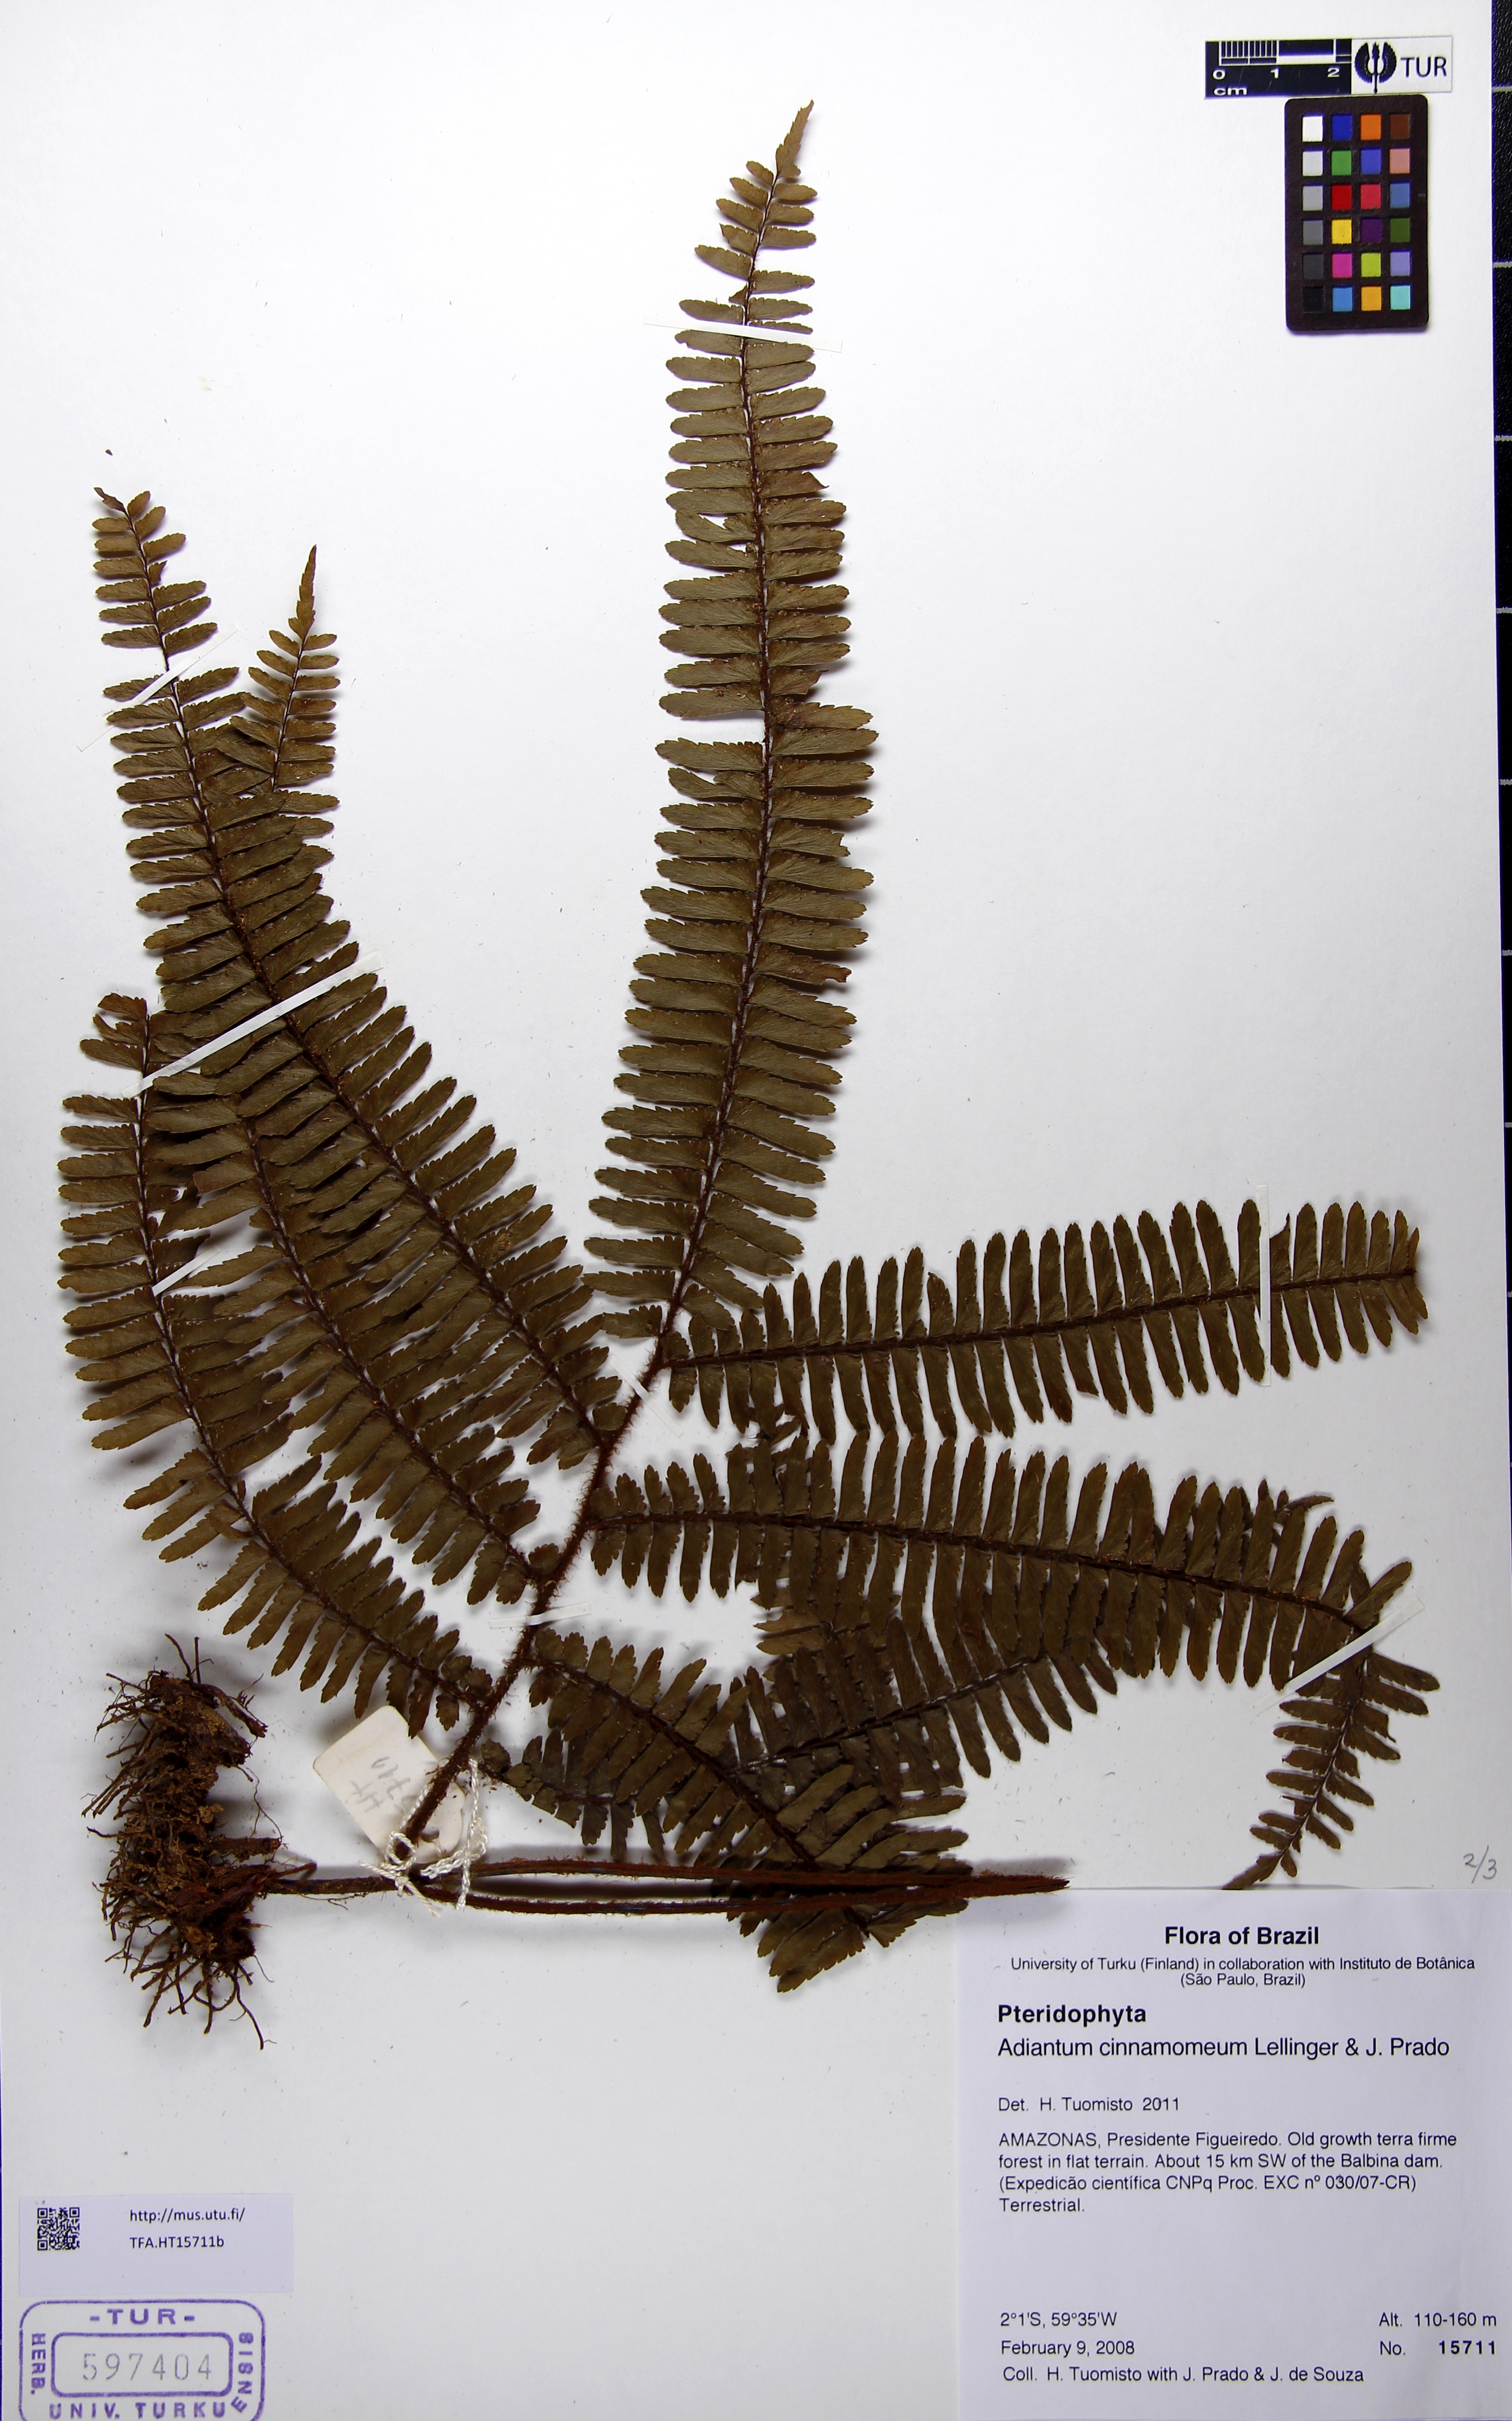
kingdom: Plantae
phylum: Tracheophyta
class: Polypodiopsida
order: Polypodiales
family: Pteridaceae
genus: Adiantum
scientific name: Adiantum cinnamomeum
